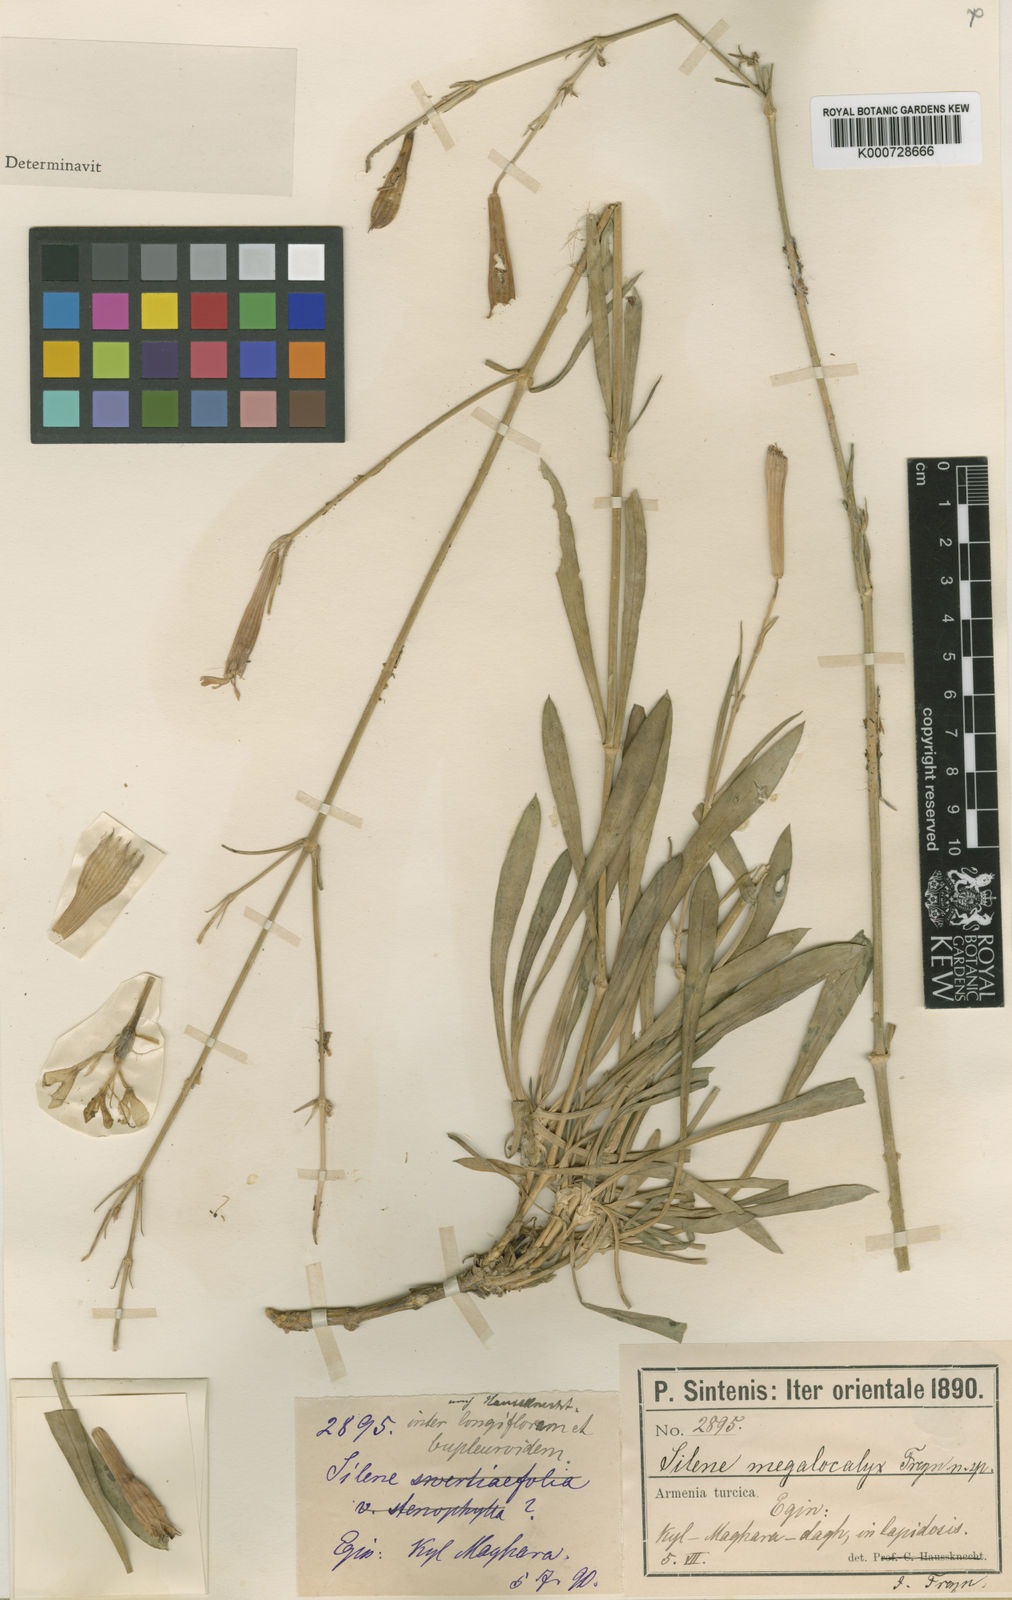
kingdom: Plantae
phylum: Tracheophyta
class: Magnoliopsida
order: Caryophyllales
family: Caryophyllaceae
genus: Silene
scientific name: Silene bupleuroides
